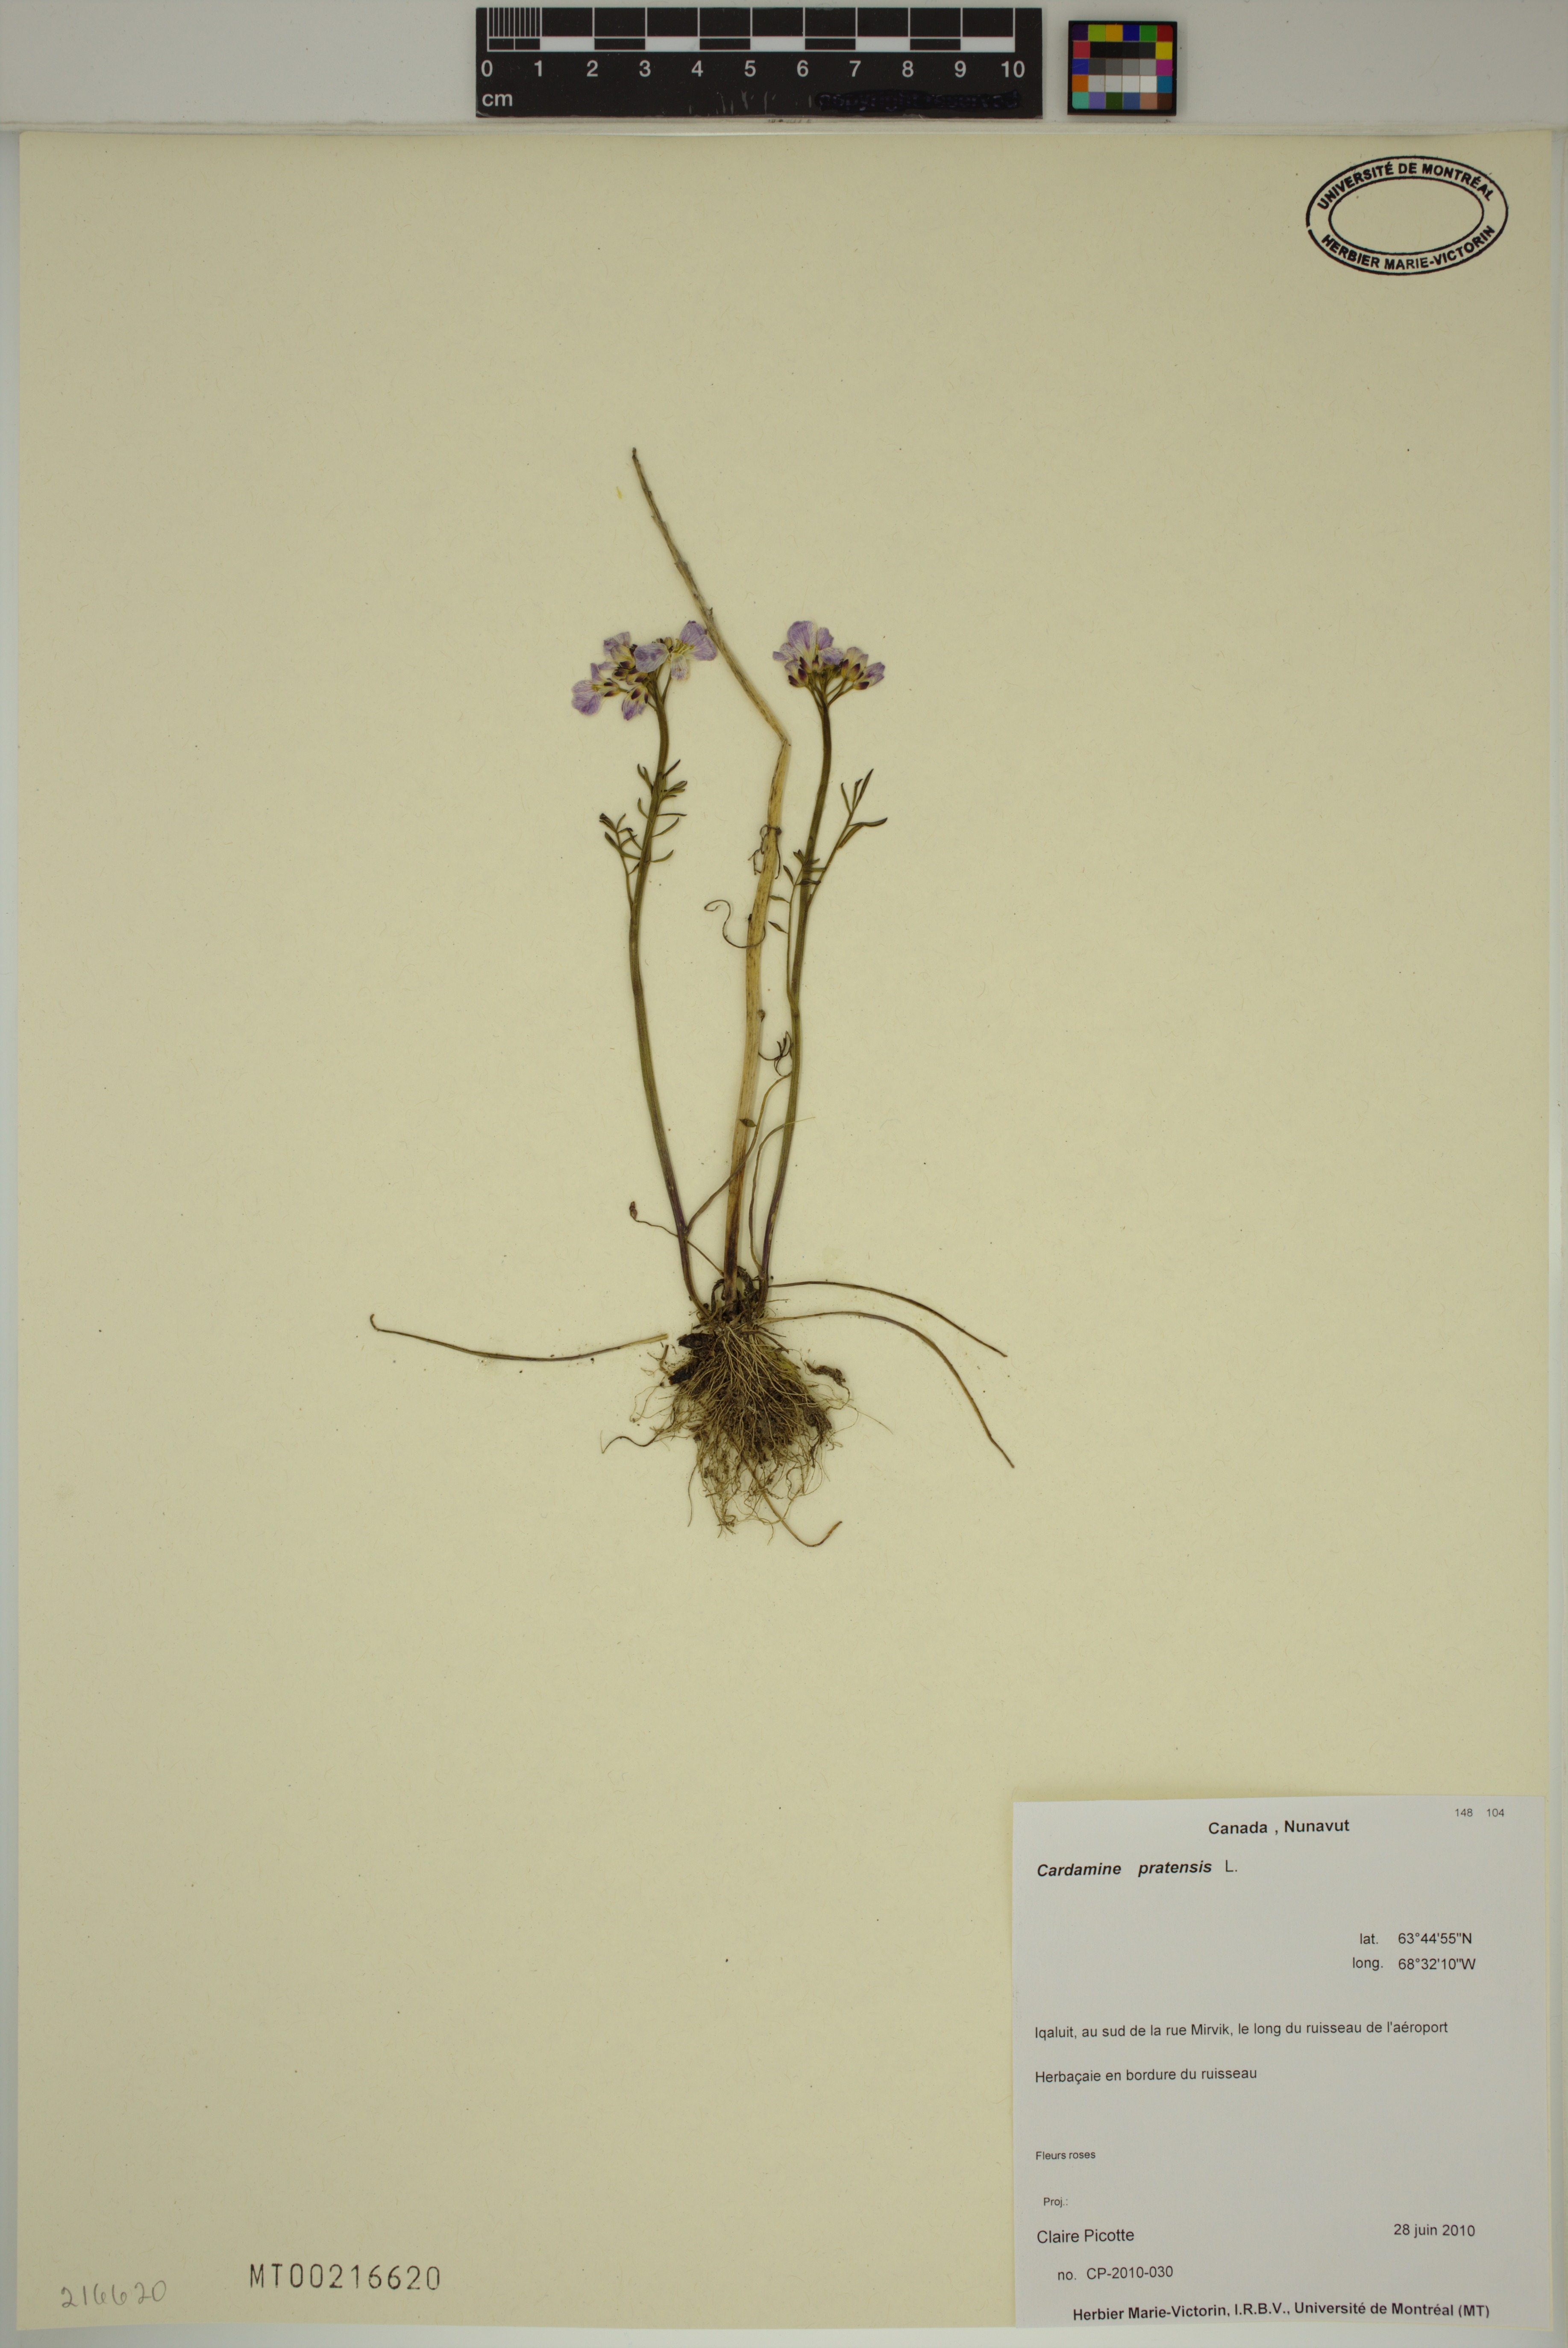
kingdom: Plantae
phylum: Tracheophyta
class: Magnoliopsida
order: Brassicales
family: Brassicaceae
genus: Cardamine
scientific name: Cardamine pratensis
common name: Cuckoo flower
